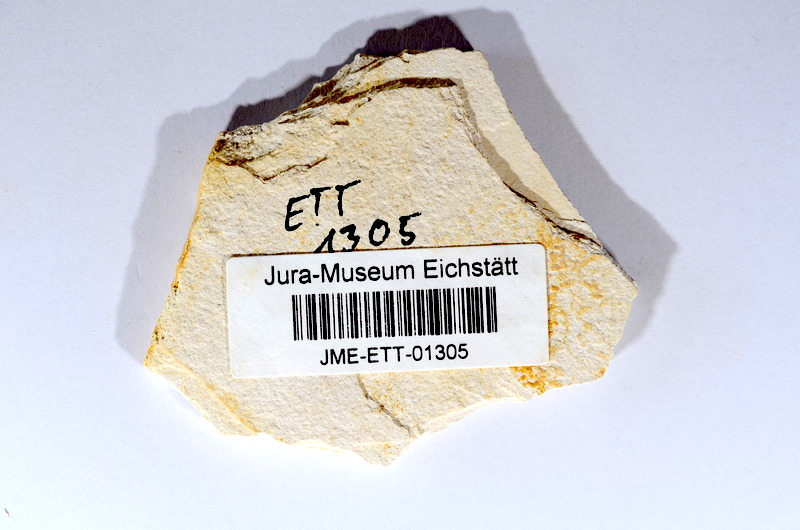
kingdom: Animalia
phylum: Chordata
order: Salmoniformes
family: Orthogonikleithridae
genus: Orthogonikleithrus
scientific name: Orthogonikleithrus hoelli
